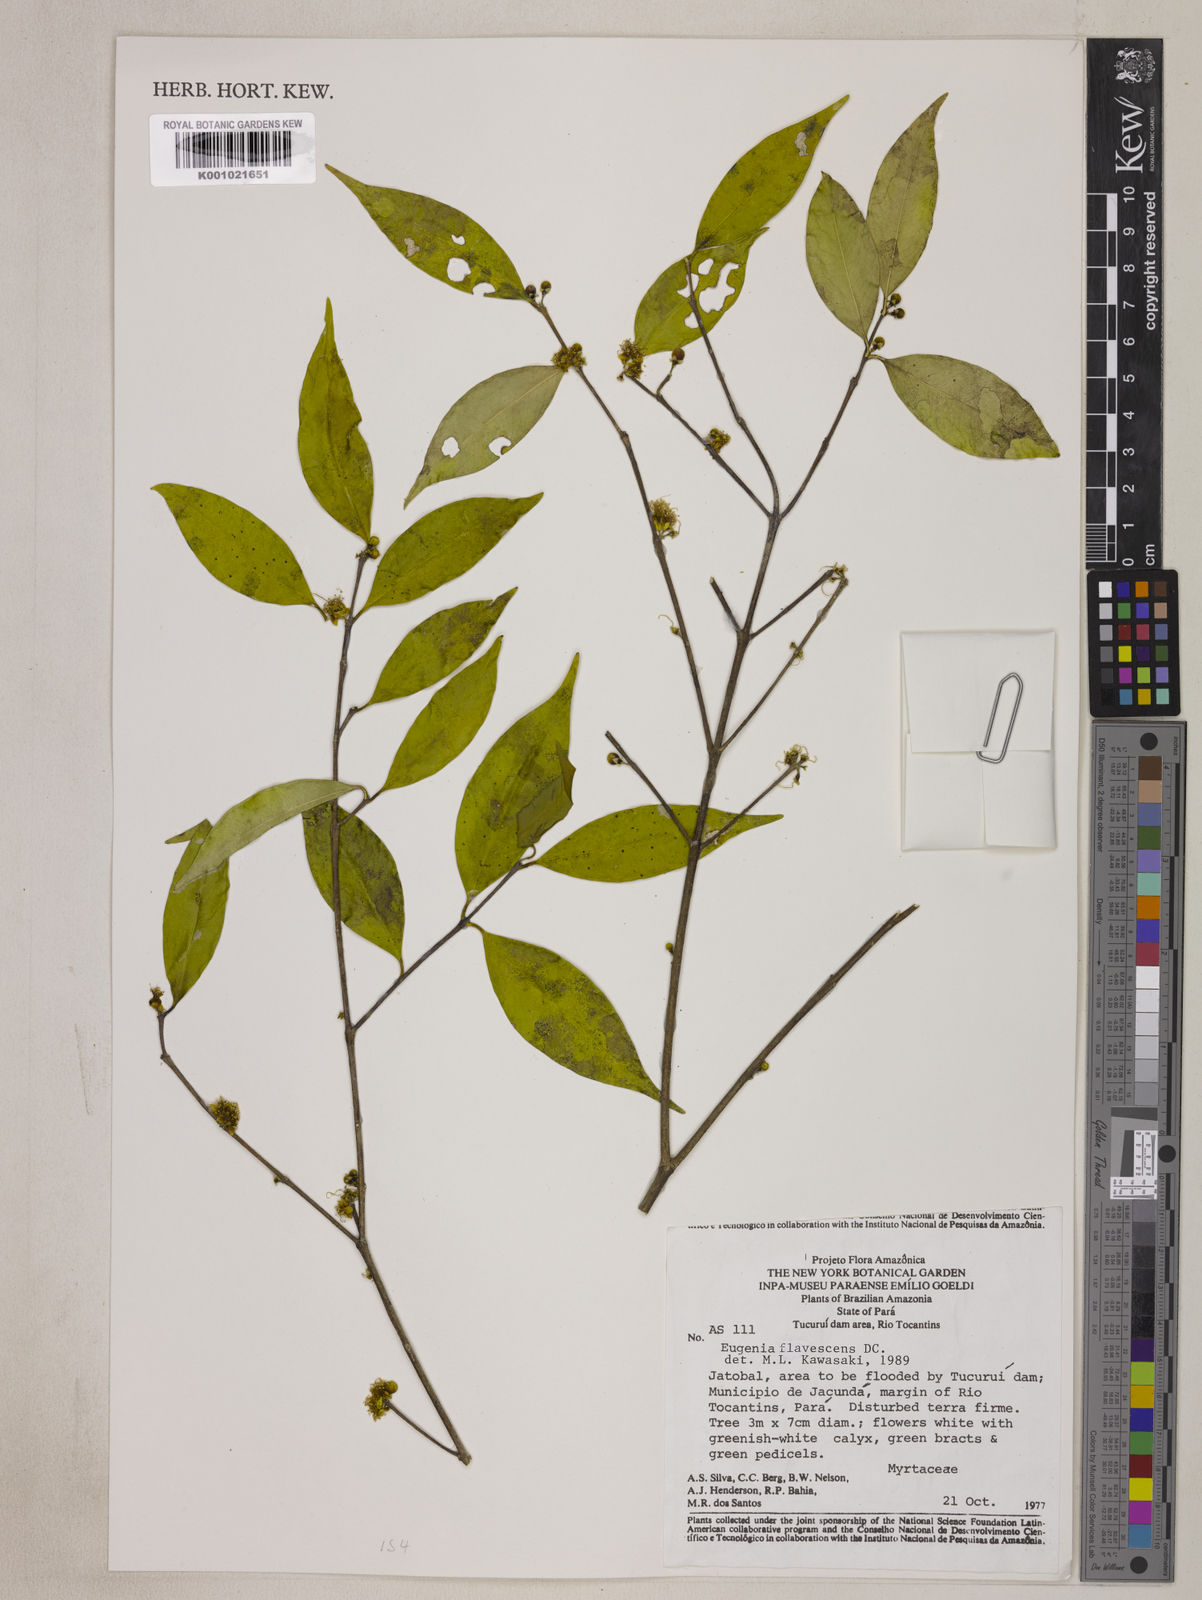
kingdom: Plantae
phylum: Tracheophyta
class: Magnoliopsida
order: Myrtales
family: Myrtaceae
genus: Eugenia
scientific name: Eugenia flavescens
